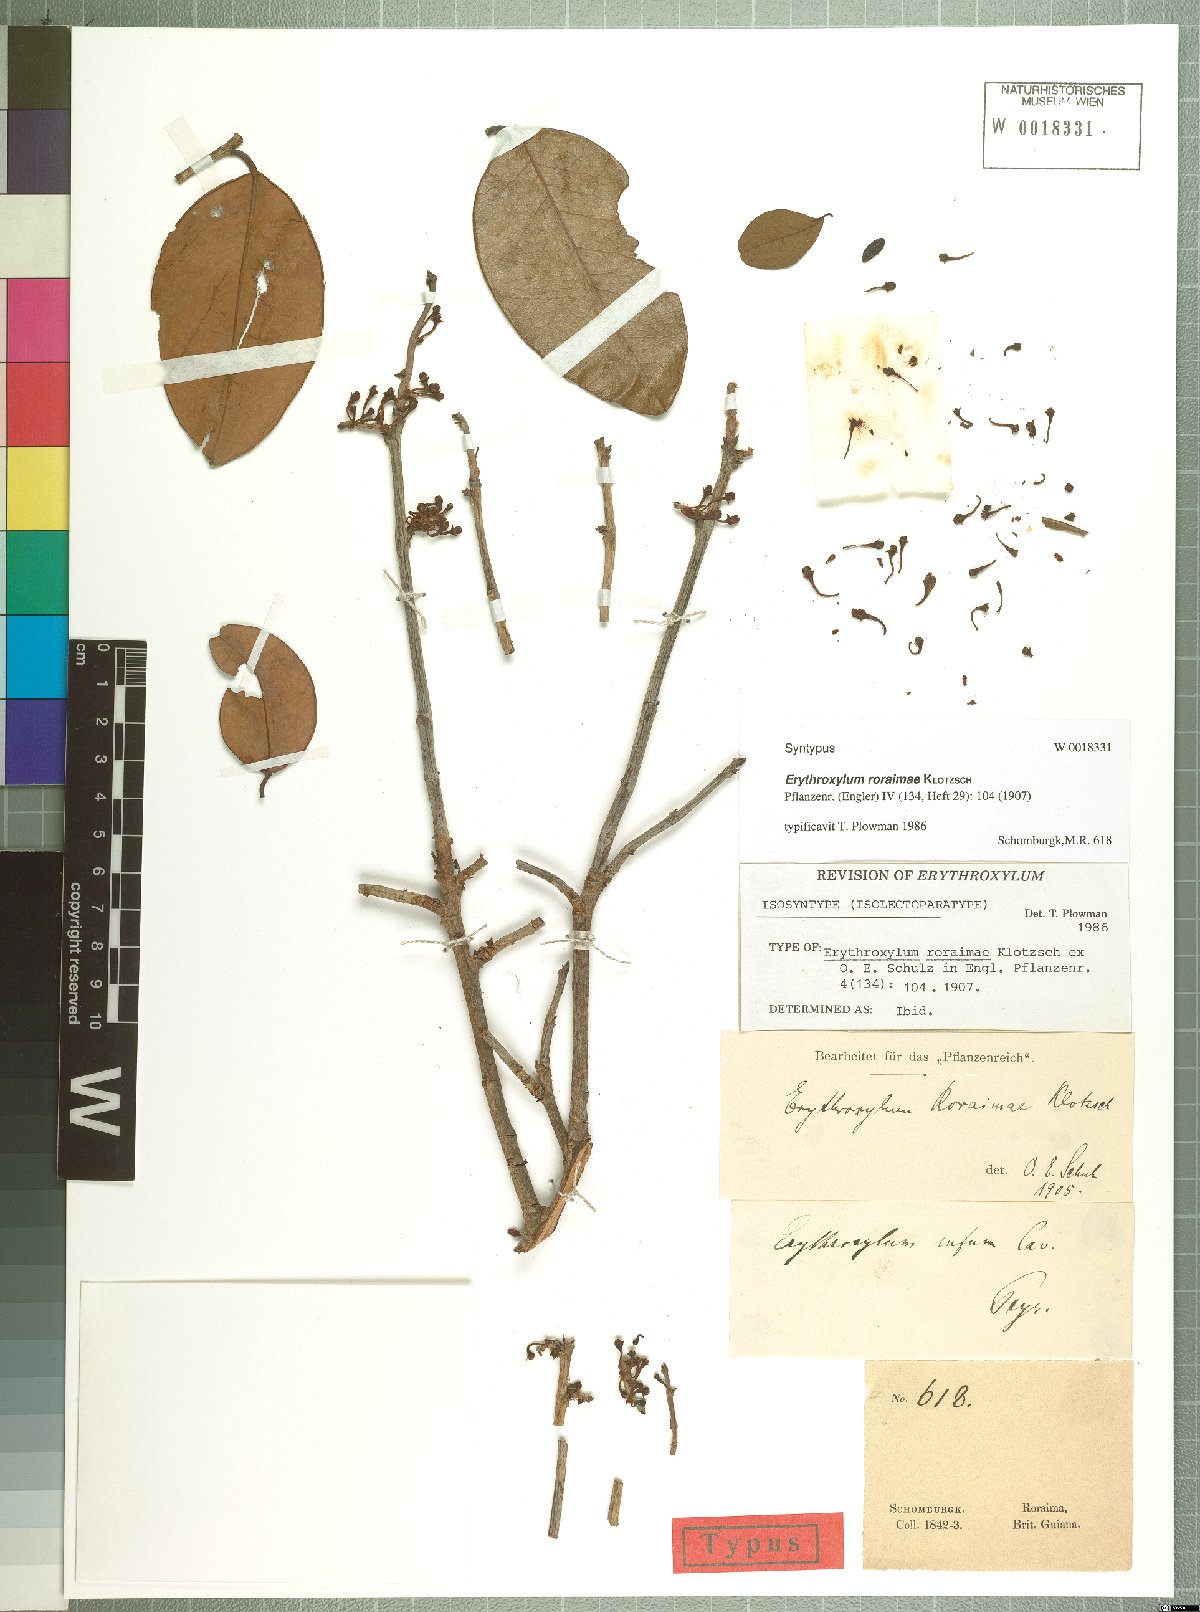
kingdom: Plantae
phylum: Tracheophyta
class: Magnoliopsida
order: Malpighiales
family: Erythroxylaceae
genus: Erythroxylum
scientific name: Erythroxylum roraimae
